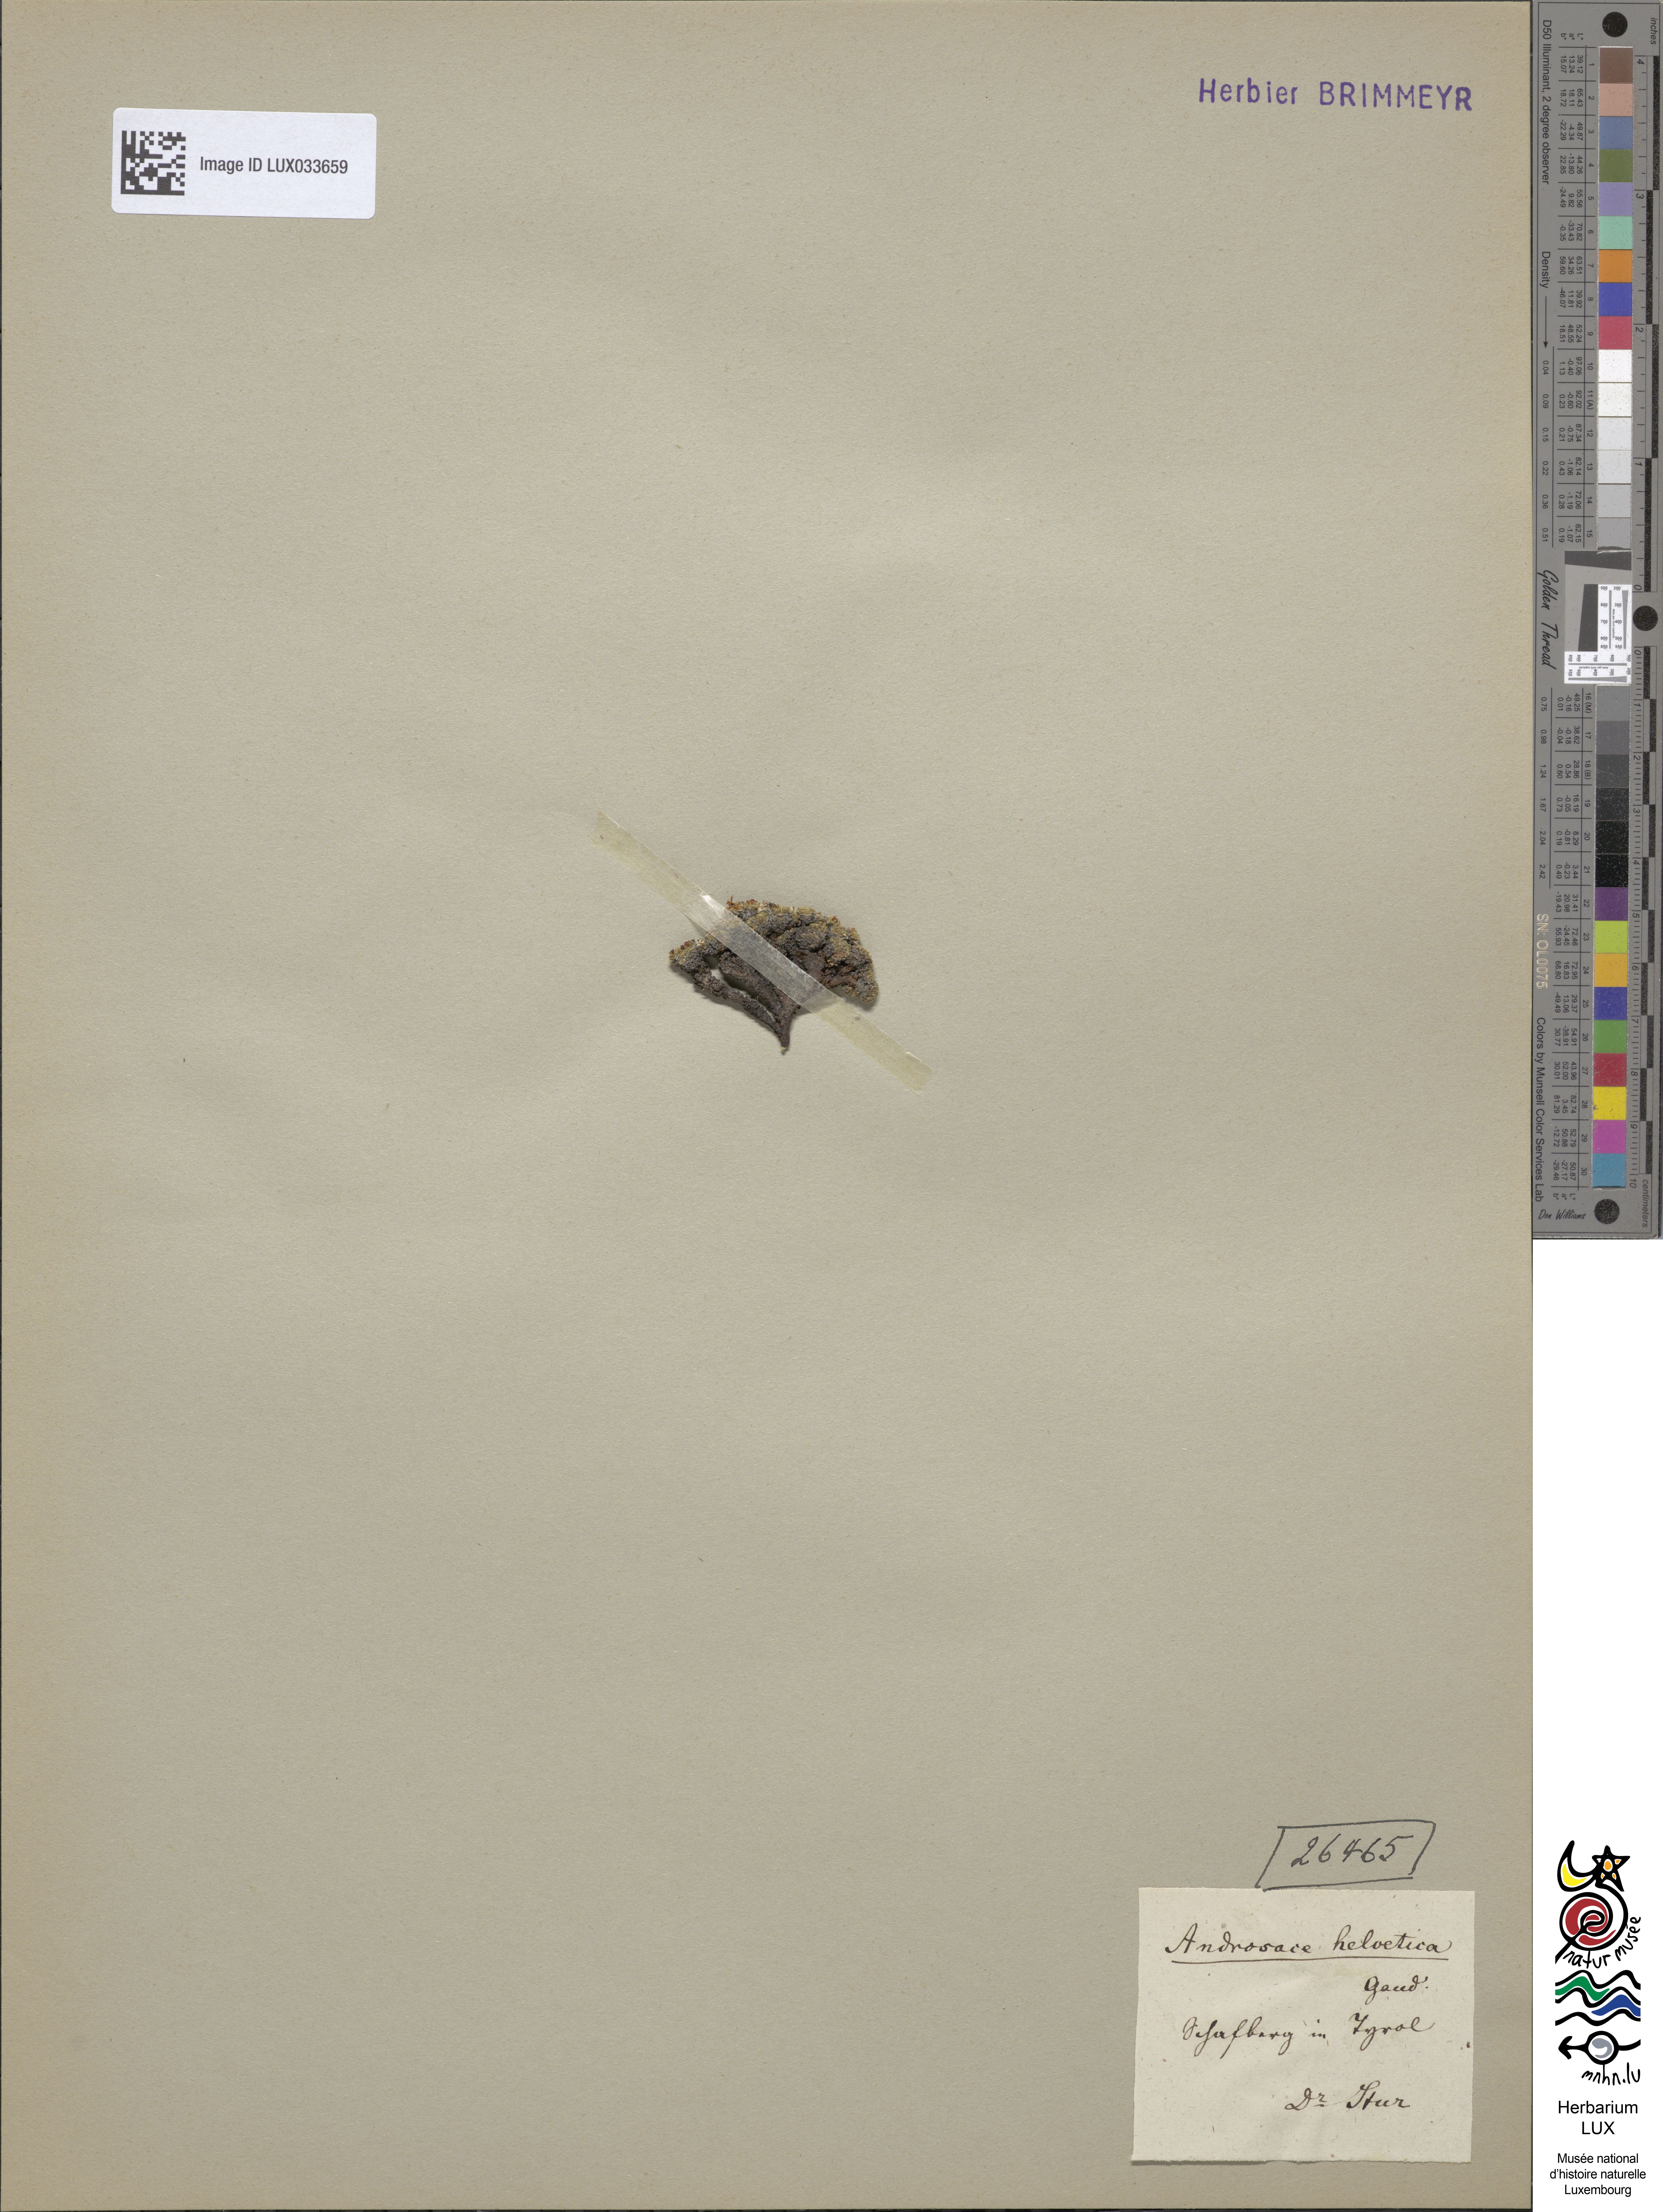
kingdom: Plantae
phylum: Tracheophyta
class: Magnoliopsida
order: Ericales
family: Primulaceae
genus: Androsace
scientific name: Androsace helvetica
